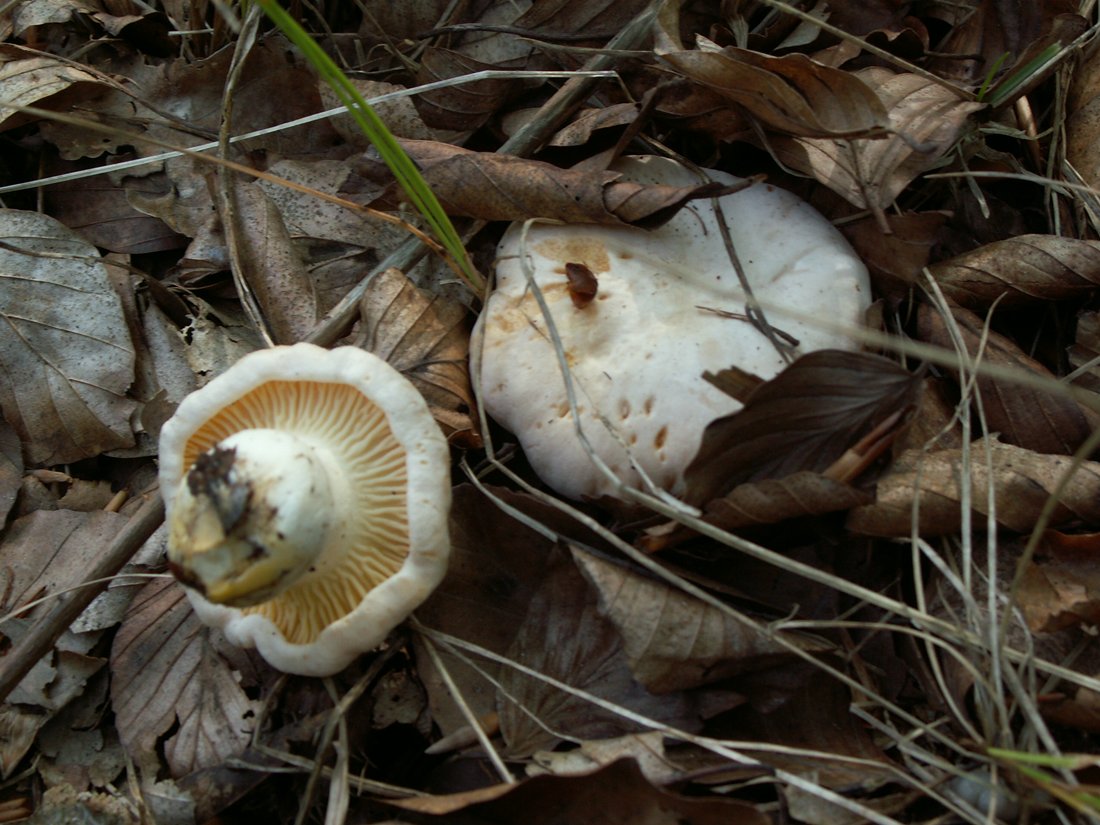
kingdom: Fungi
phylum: Basidiomycota
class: Agaricomycetes
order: Cantharellales
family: Hydnaceae
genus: Cantharellus
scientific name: Cantharellus pallens
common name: bleg kantarel
